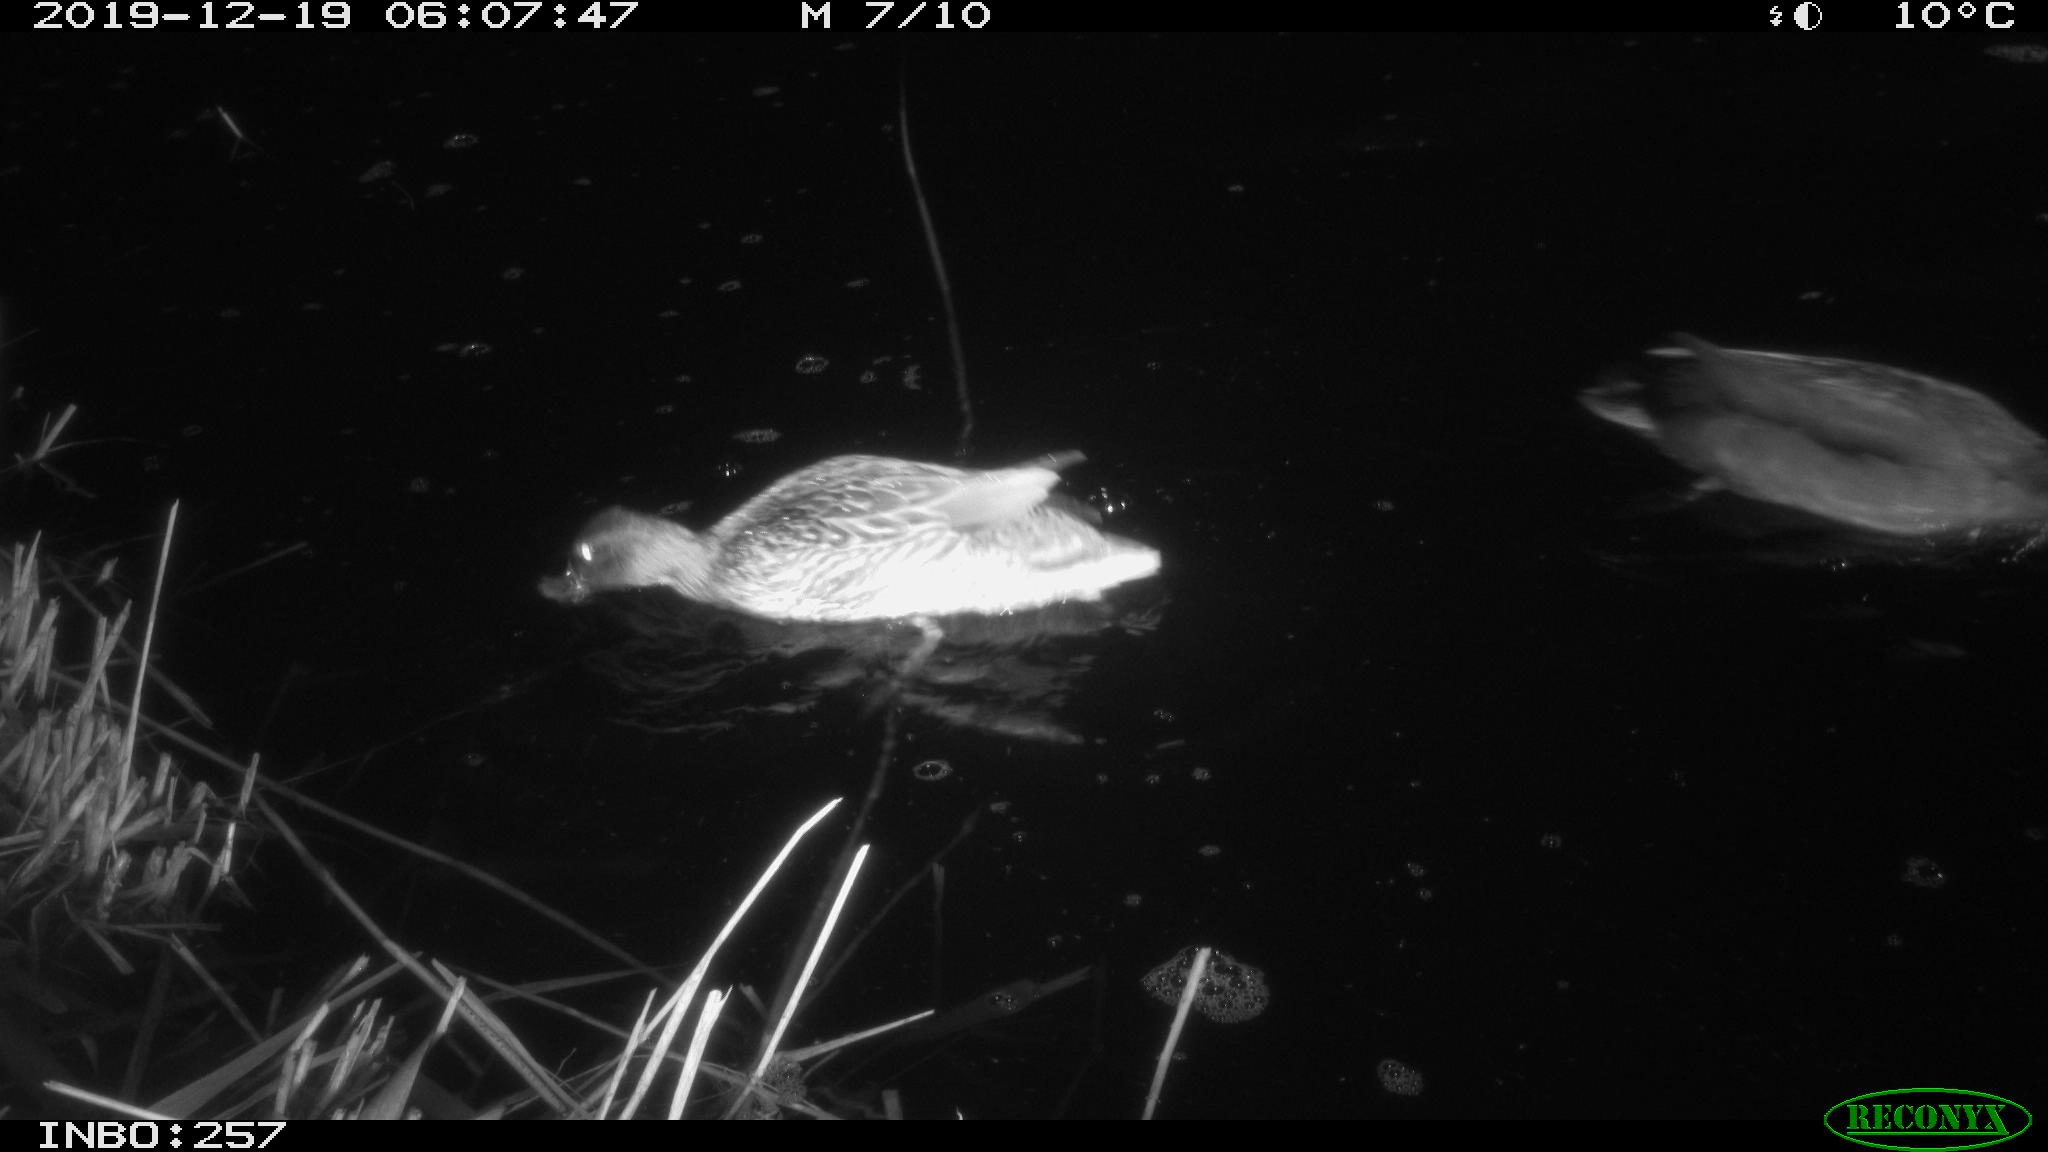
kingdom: Animalia
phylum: Chordata
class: Aves
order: Anseriformes
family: Anatidae
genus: Anas
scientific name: Anas platyrhynchos
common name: Mallard
